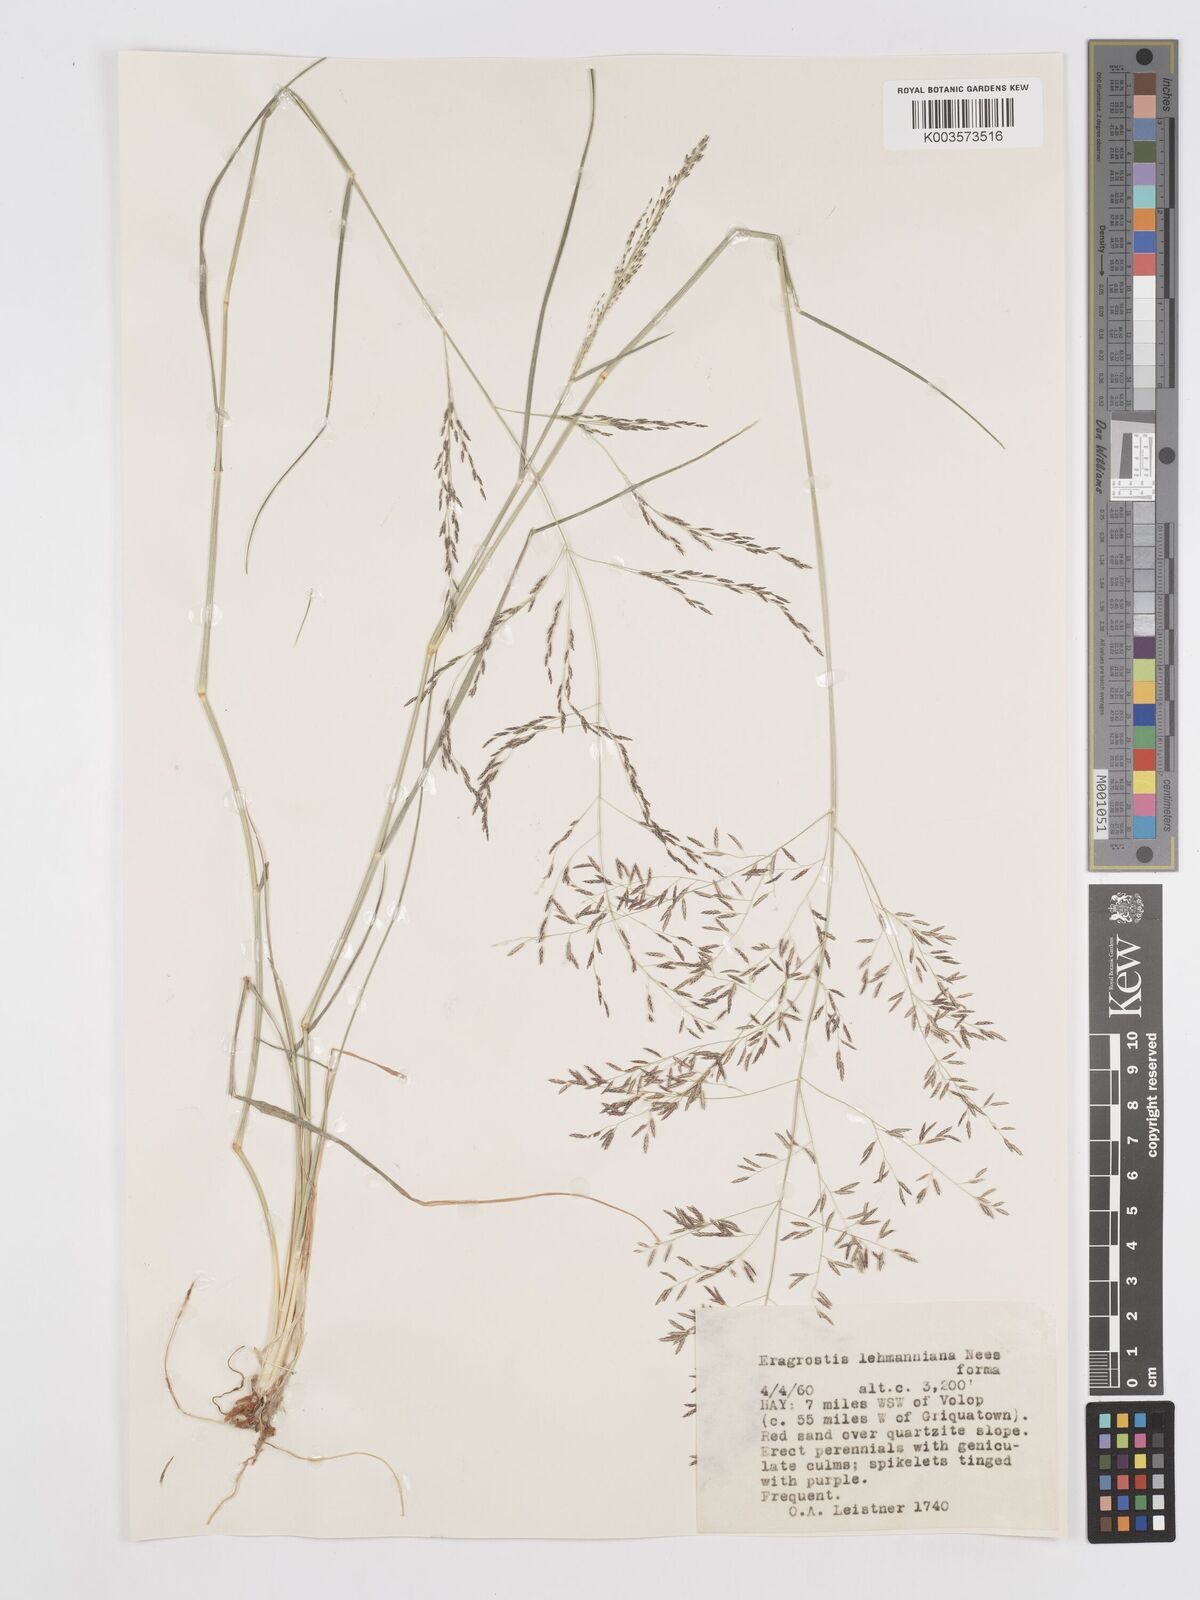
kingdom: Plantae
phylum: Tracheophyta
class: Liliopsida
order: Poales
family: Poaceae
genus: Eragrostis
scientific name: Eragrostis lehmanniana
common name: Lehmann lovegrass
